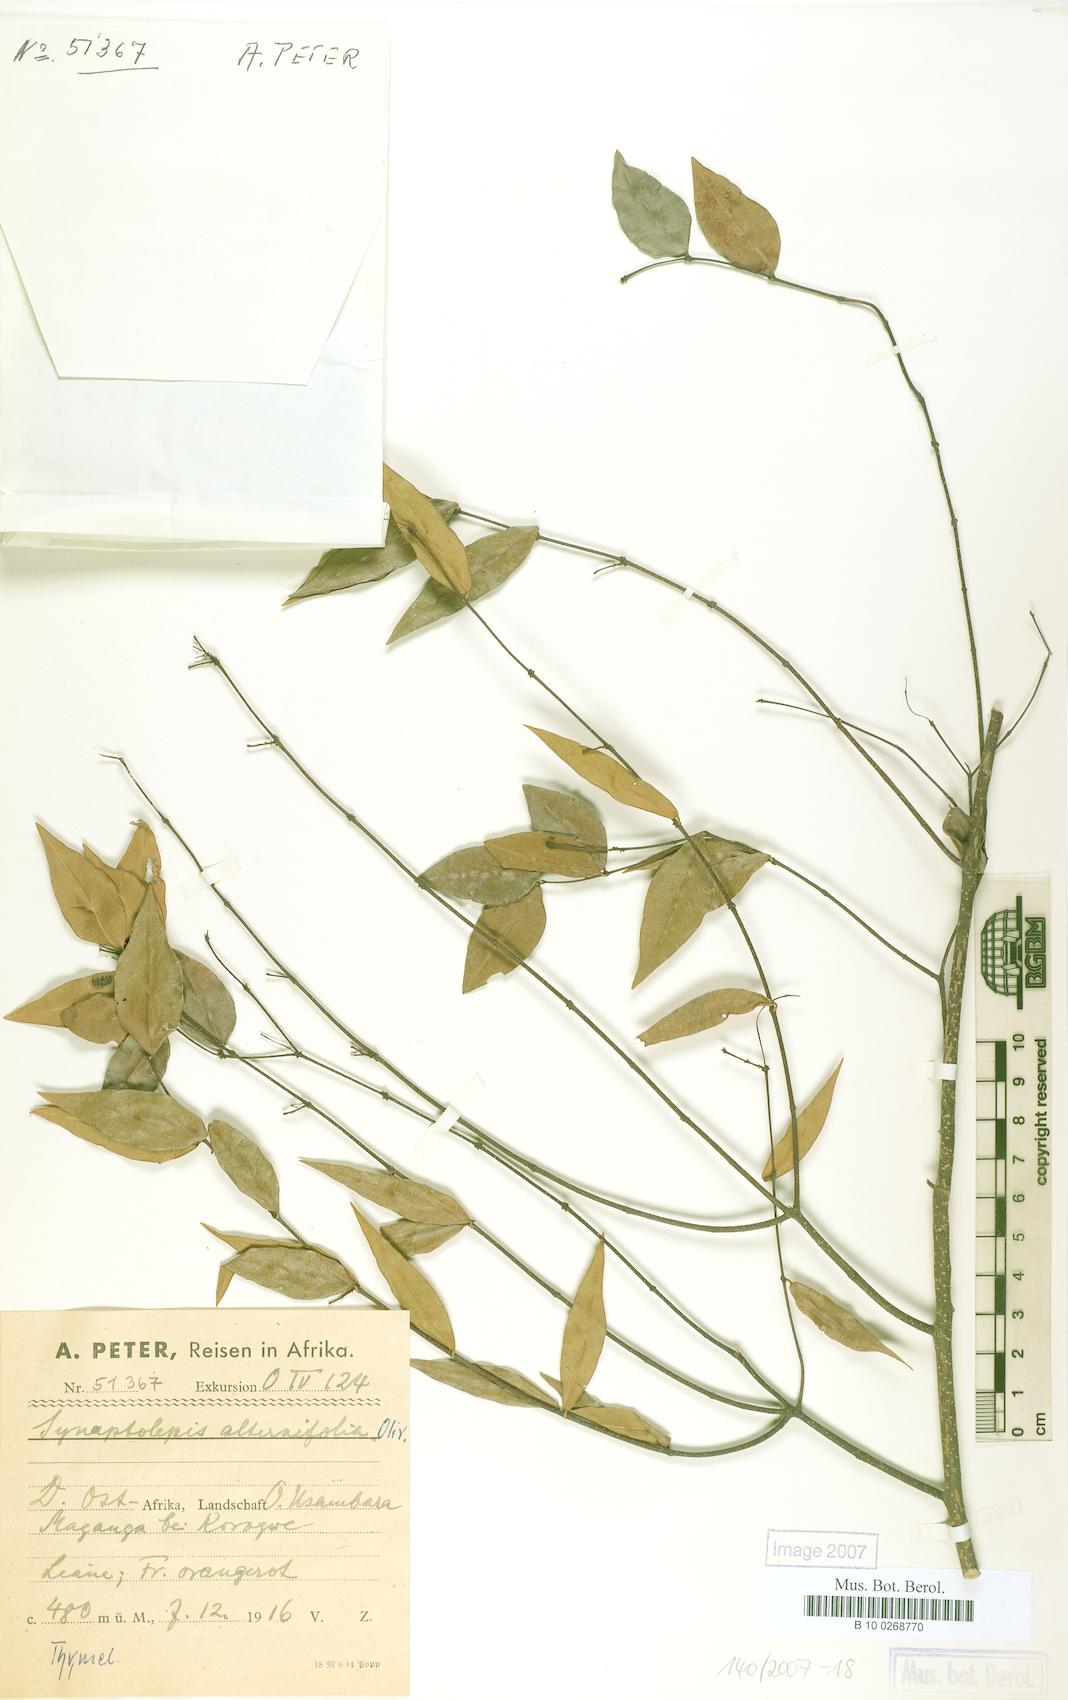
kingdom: Plantae
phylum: Tracheophyta
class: Magnoliopsida
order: Malvales
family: Thymelaeaceae
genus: Synaptolepis
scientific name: Synaptolepis alternifolia
